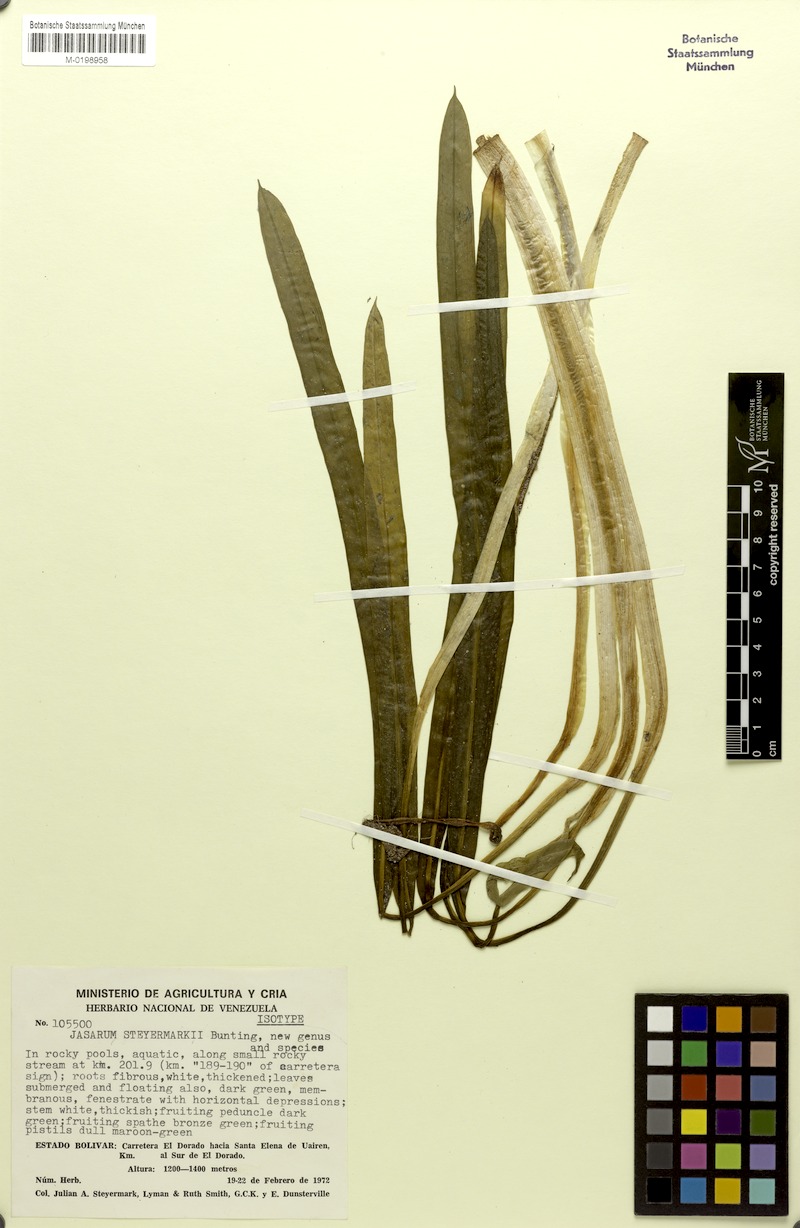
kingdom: Plantae
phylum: Tracheophyta
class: Liliopsida
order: Alismatales
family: Araceae
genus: Jasarum
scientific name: Jasarum steyermarkii
